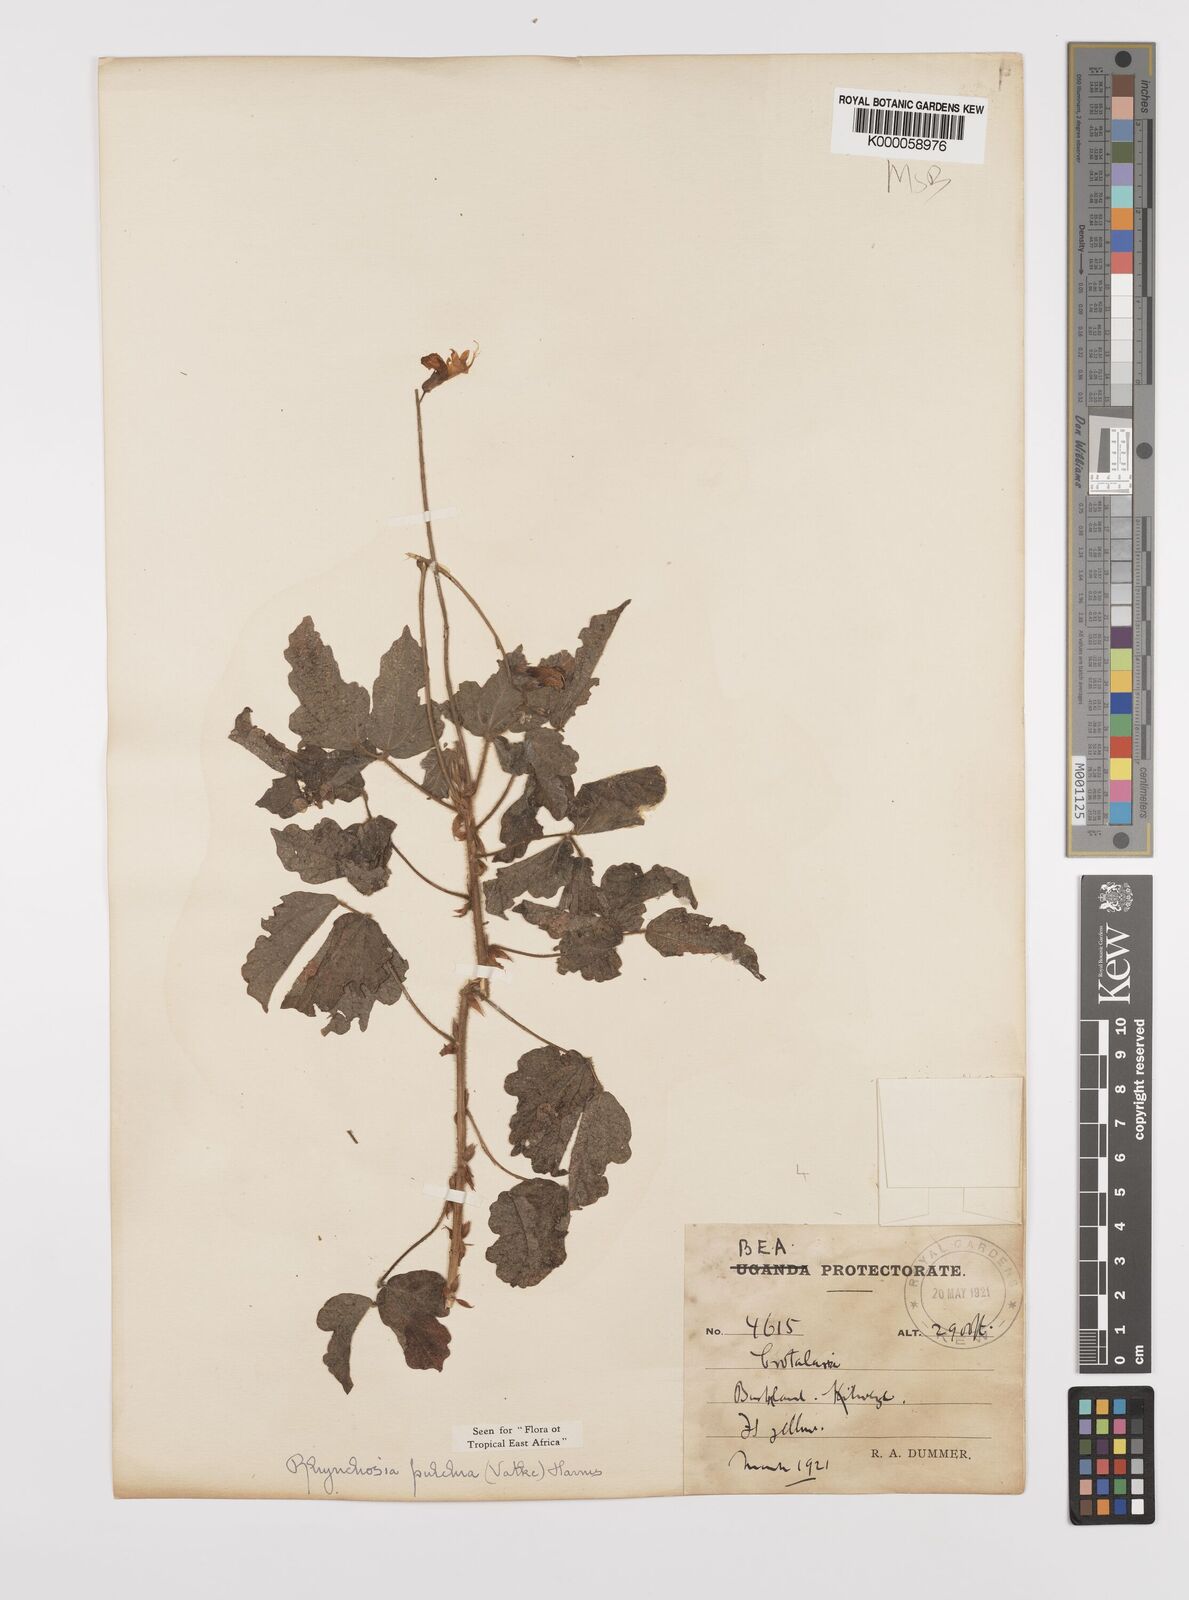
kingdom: Plantae
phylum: Tracheophyta
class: Magnoliopsida
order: Fabales
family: Fabaceae
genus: Rhynchosia
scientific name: Rhynchosia pulchra
